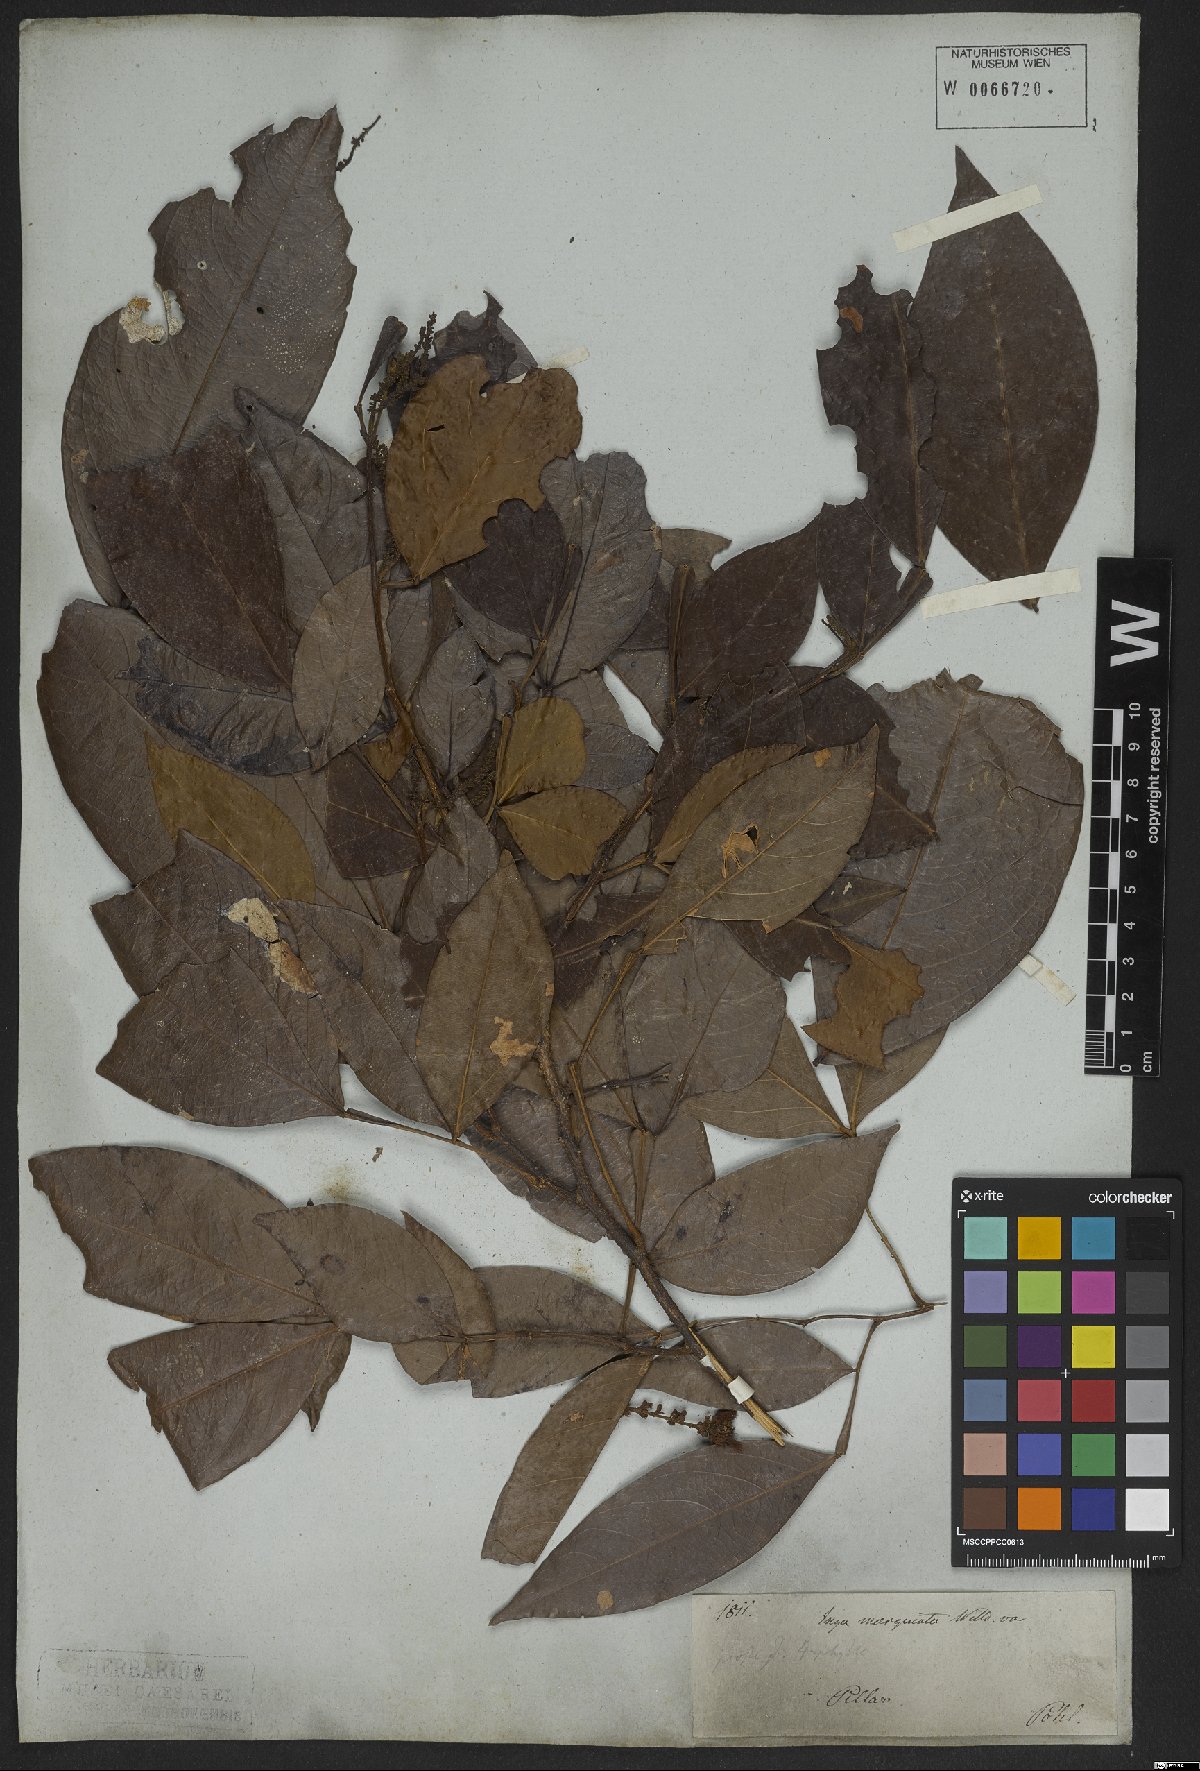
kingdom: Plantae
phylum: Tracheophyta
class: Magnoliopsida
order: Fabales
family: Fabaceae
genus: Inga
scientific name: Inga marginata
